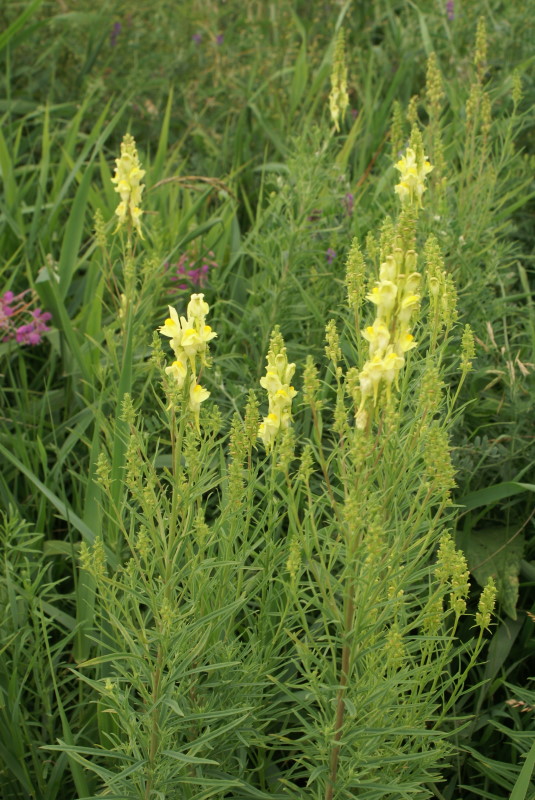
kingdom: Plantae
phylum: Tracheophyta
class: Magnoliopsida
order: Lamiales
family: Plantaginaceae
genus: Linaria
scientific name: Linaria vulgaris
